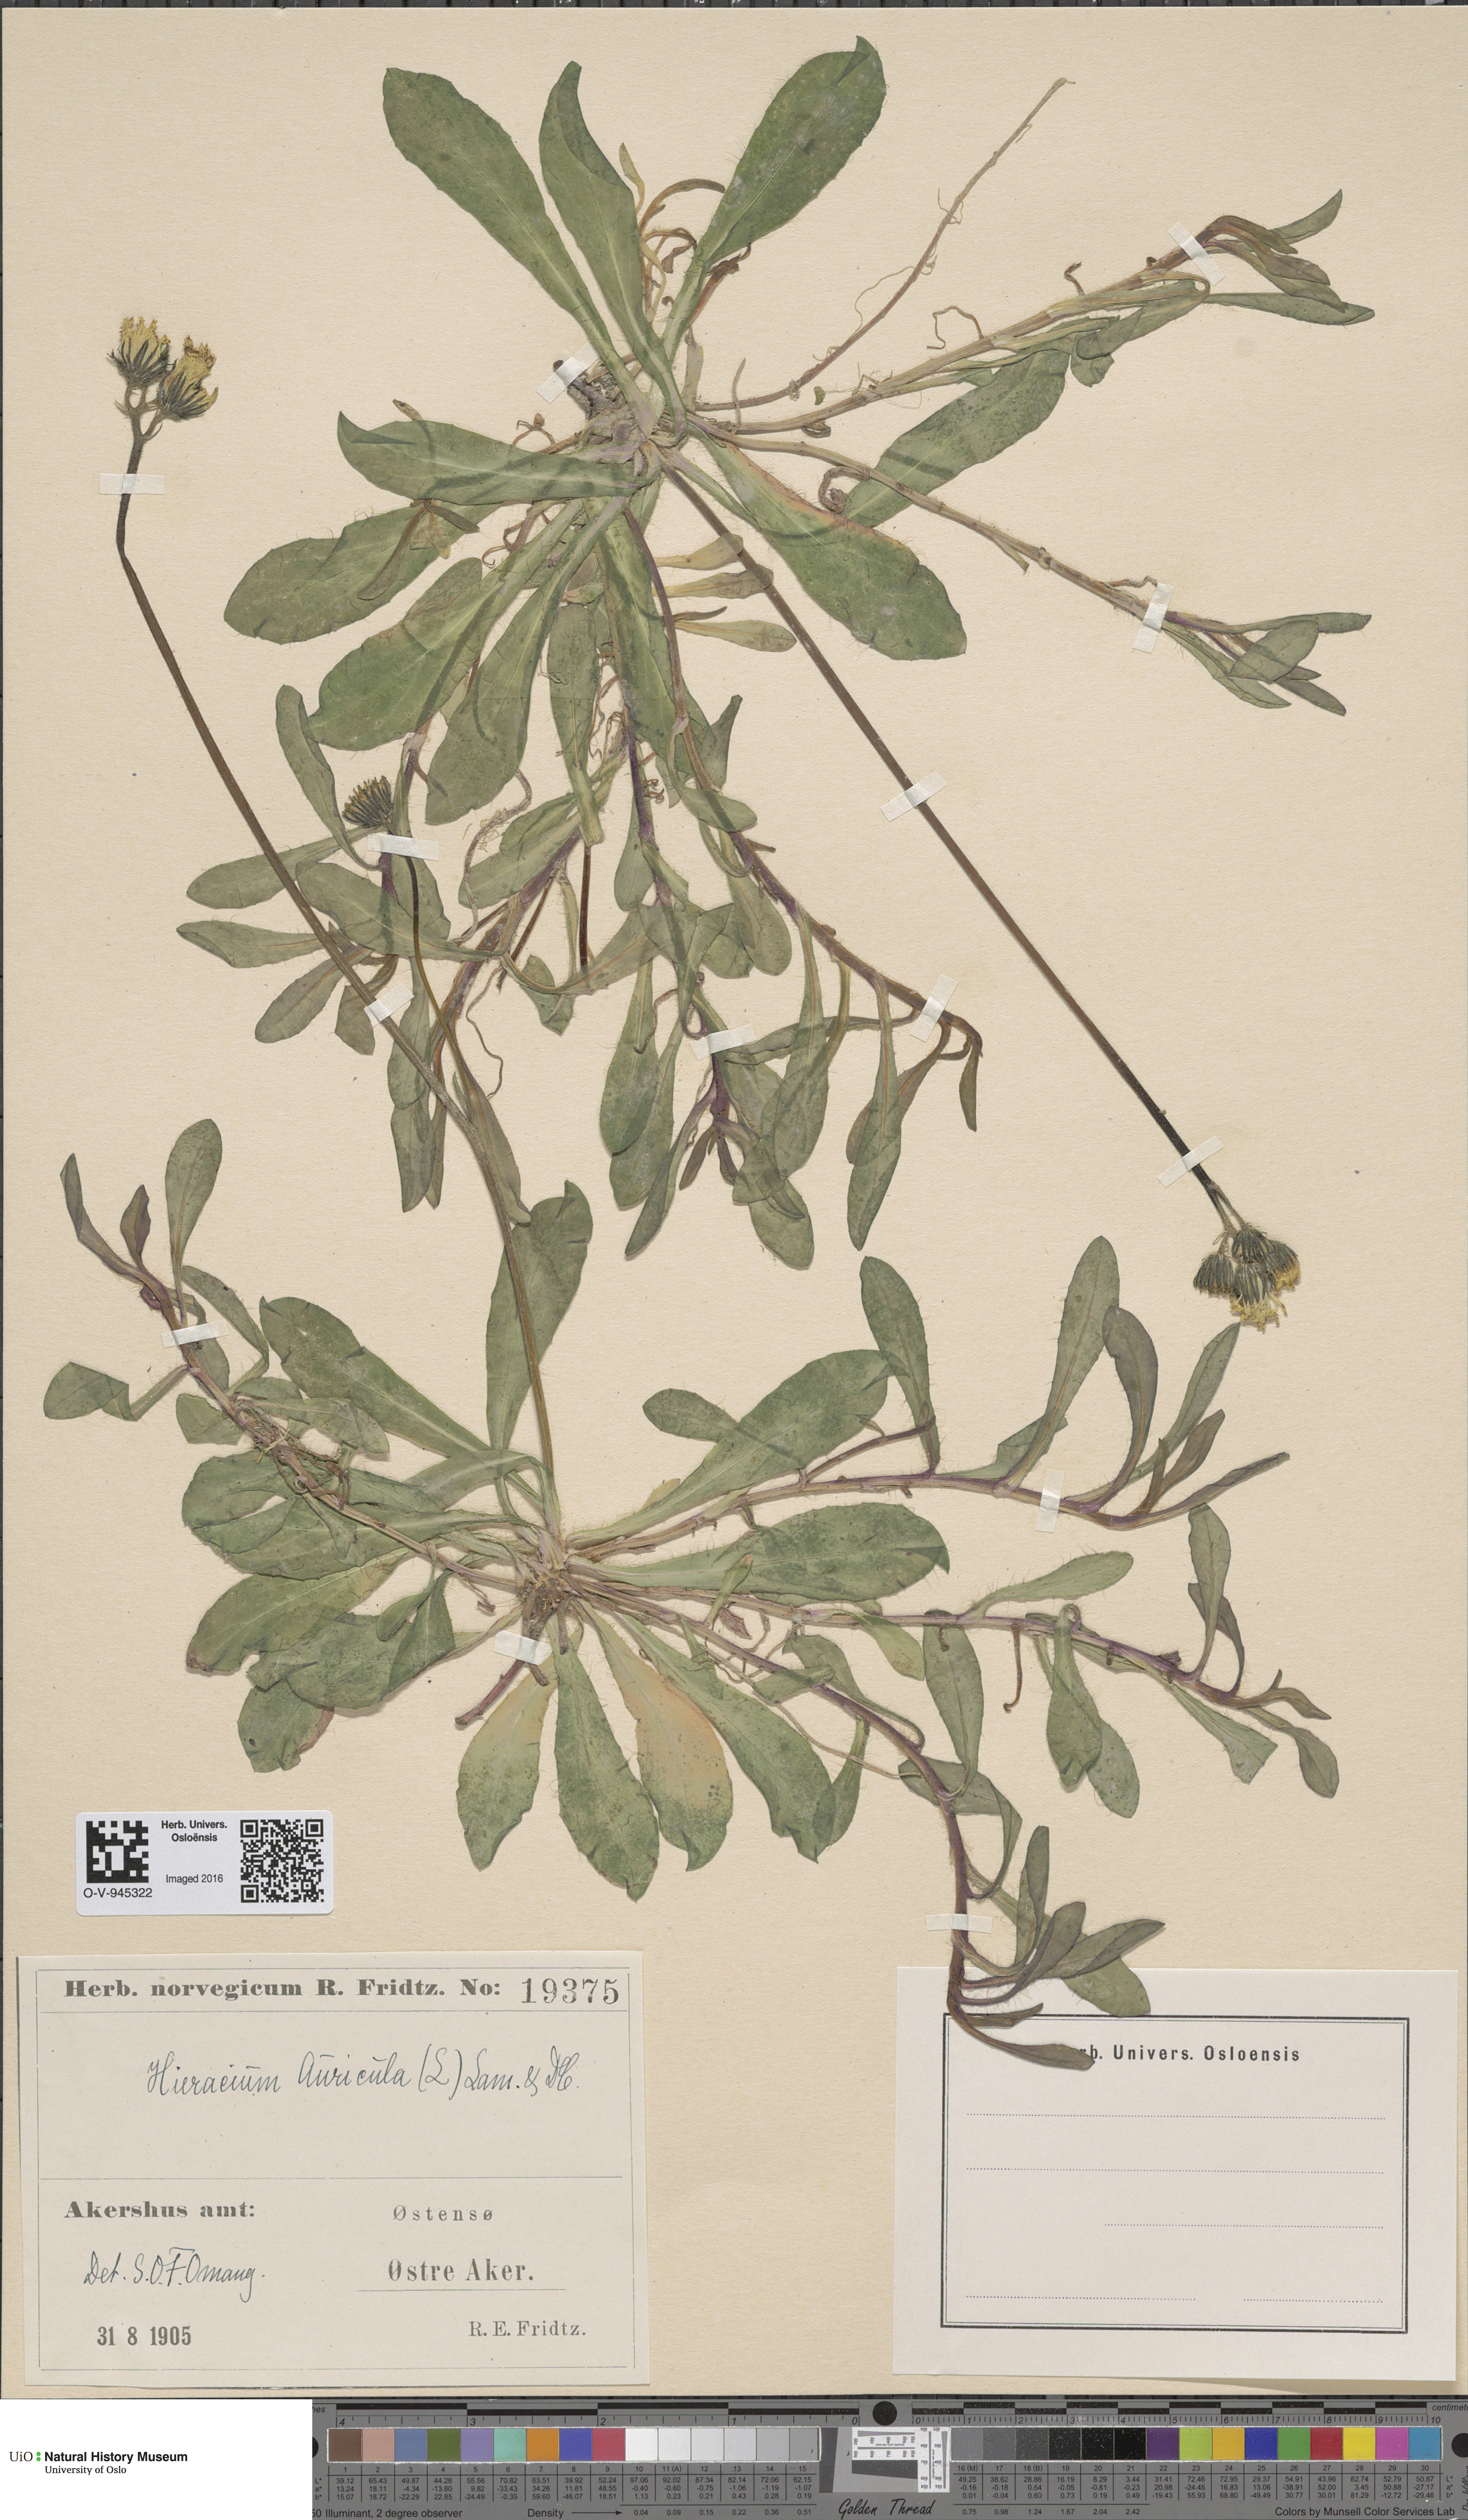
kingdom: Plantae
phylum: Tracheophyta
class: Magnoliopsida
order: Asterales
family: Asteraceae
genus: Pilosella
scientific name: Pilosella lactucella
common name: Glaucous fox-and-cubs
